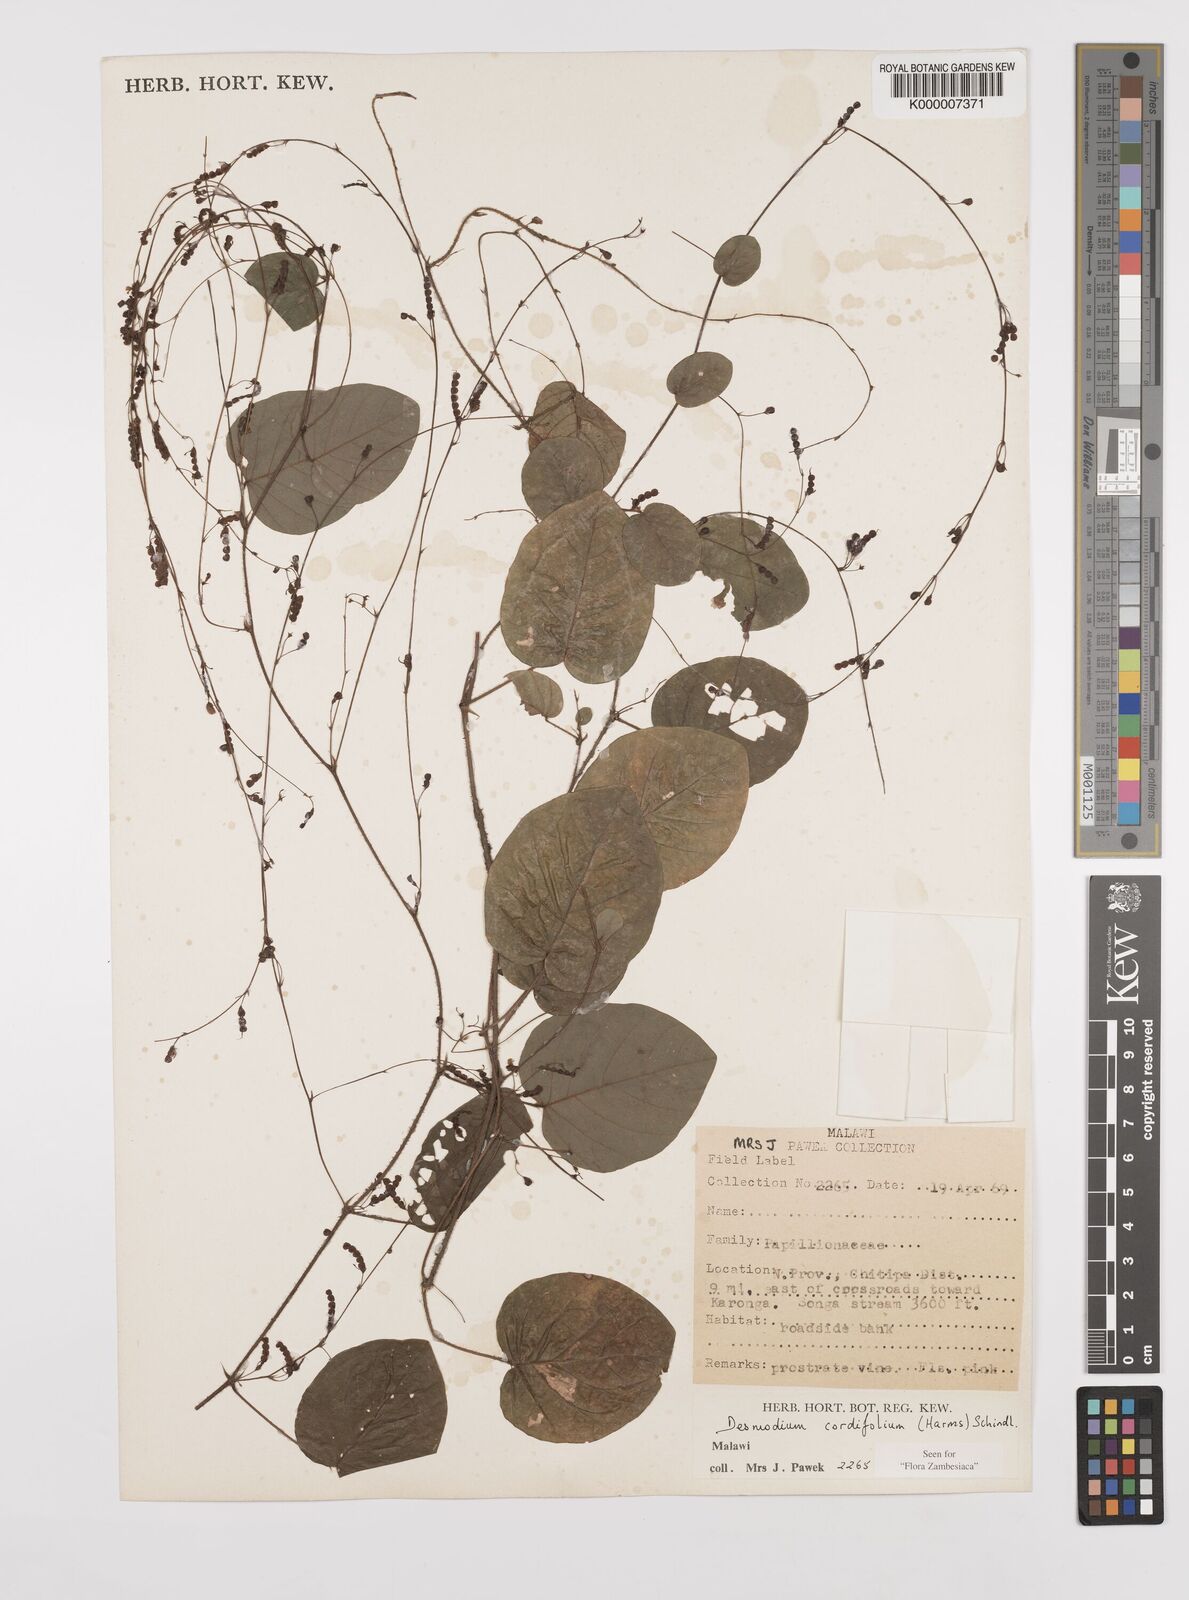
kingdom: Plantae
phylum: Tracheophyta
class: Magnoliopsida
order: Fabales
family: Fabaceae
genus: Grona
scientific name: Grona cordifolia
